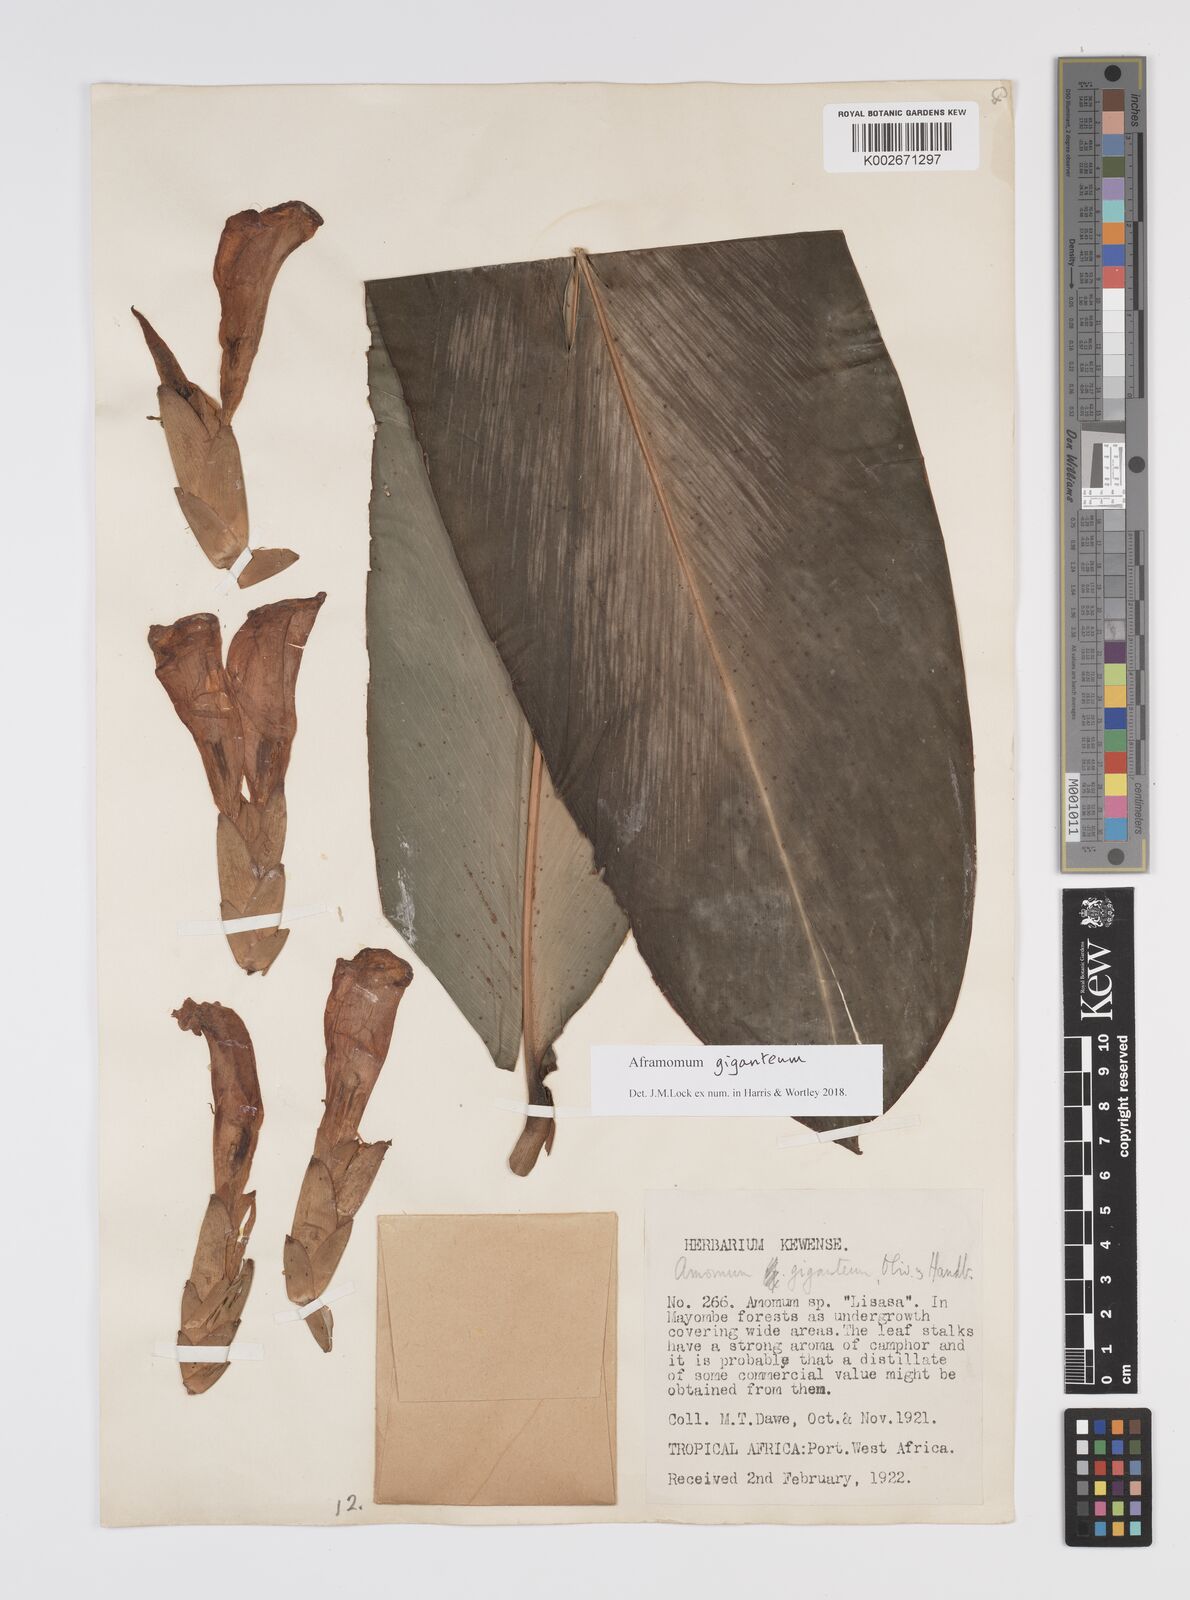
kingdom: Plantae
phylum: Tracheophyta
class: Liliopsida
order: Zingiberales
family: Zingiberaceae
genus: Aframomum
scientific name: Aframomum giganteum
